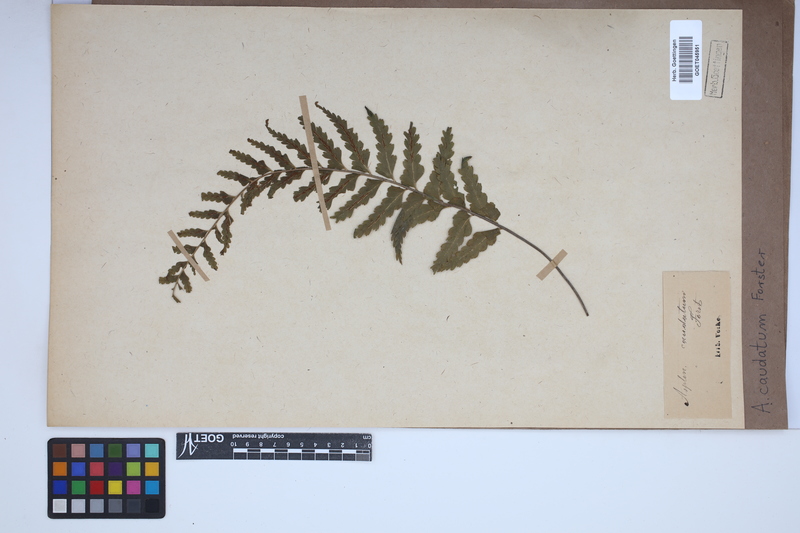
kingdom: Plantae
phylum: Tracheophyta
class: Polypodiopsida
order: Polypodiales
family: Aspleniaceae
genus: Asplenium
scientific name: Asplenium caudatum
